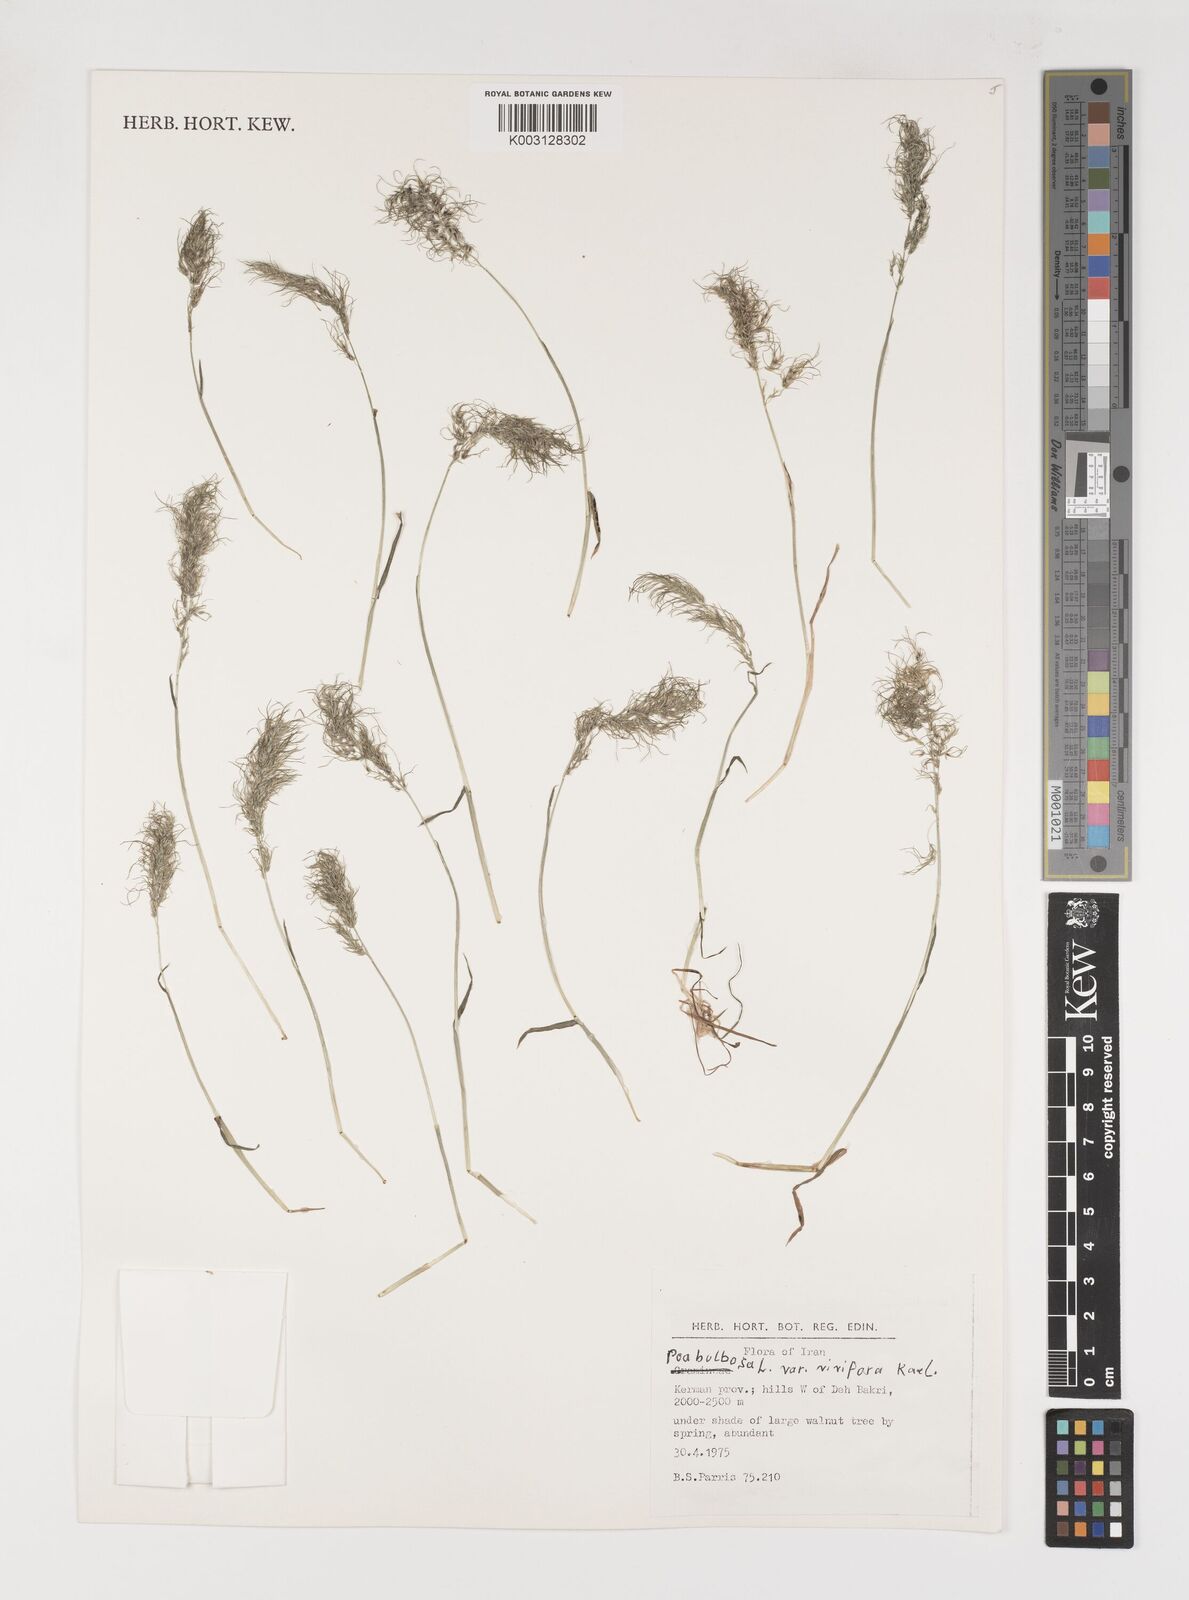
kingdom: Plantae
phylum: Tracheophyta
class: Liliopsida
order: Poales
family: Poaceae
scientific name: Poaceae
